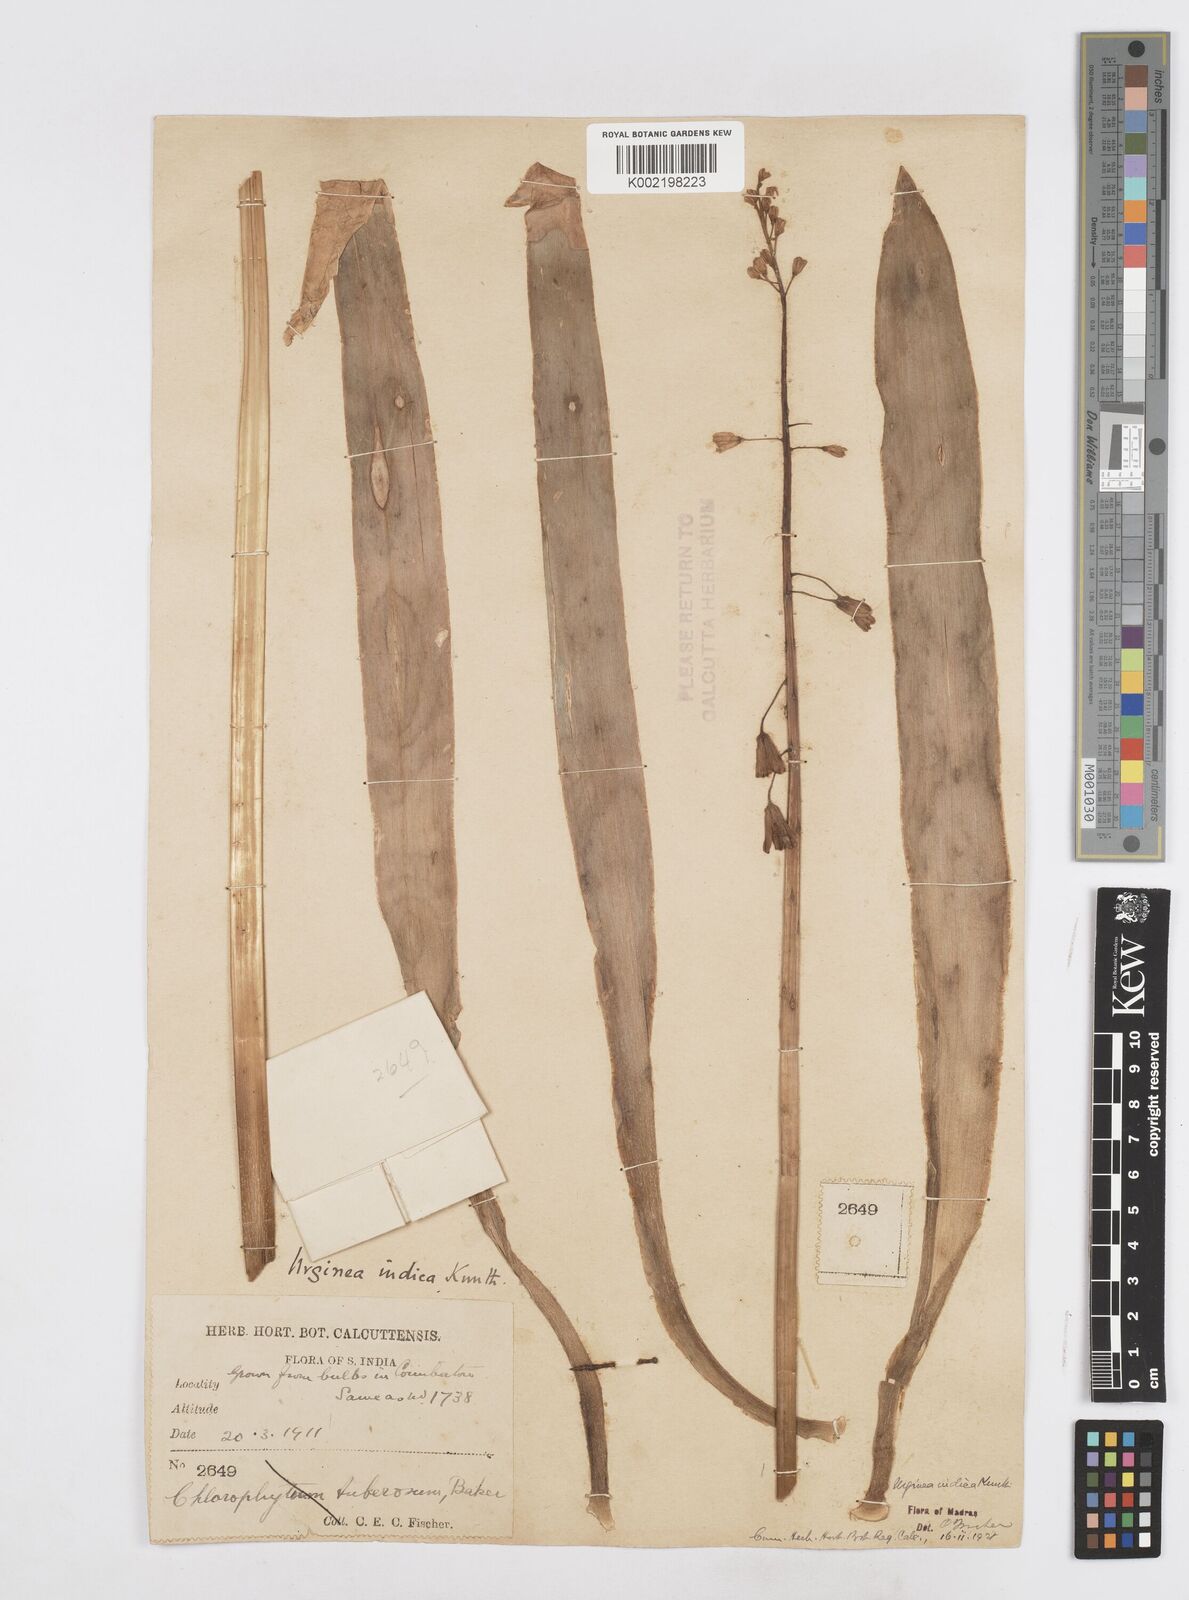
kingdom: Plantae
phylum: Tracheophyta
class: Liliopsida
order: Asparagales
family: Asparagaceae
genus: Drimia
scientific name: Drimia indica
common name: Indian-squill
